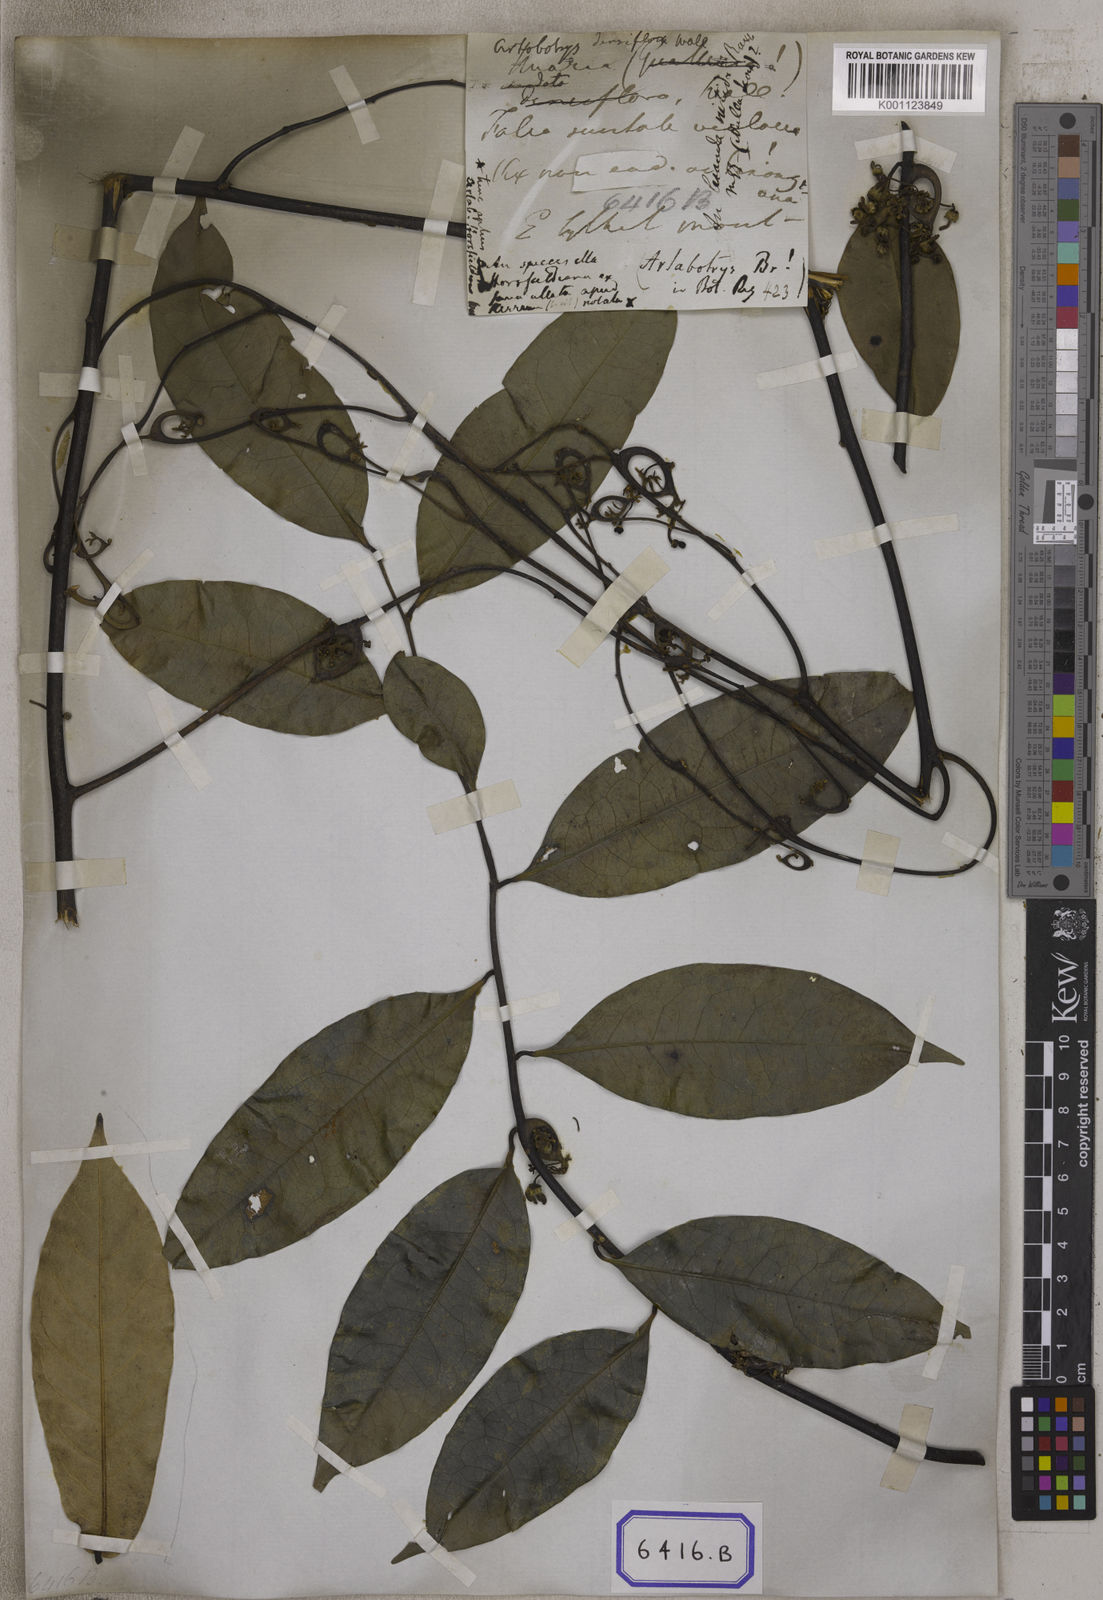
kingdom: Plantae
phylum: Tracheophyta
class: Magnoliopsida
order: Magnoliales
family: Annonaceae
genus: Artabotrys
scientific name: Artabotrys suaveolens
